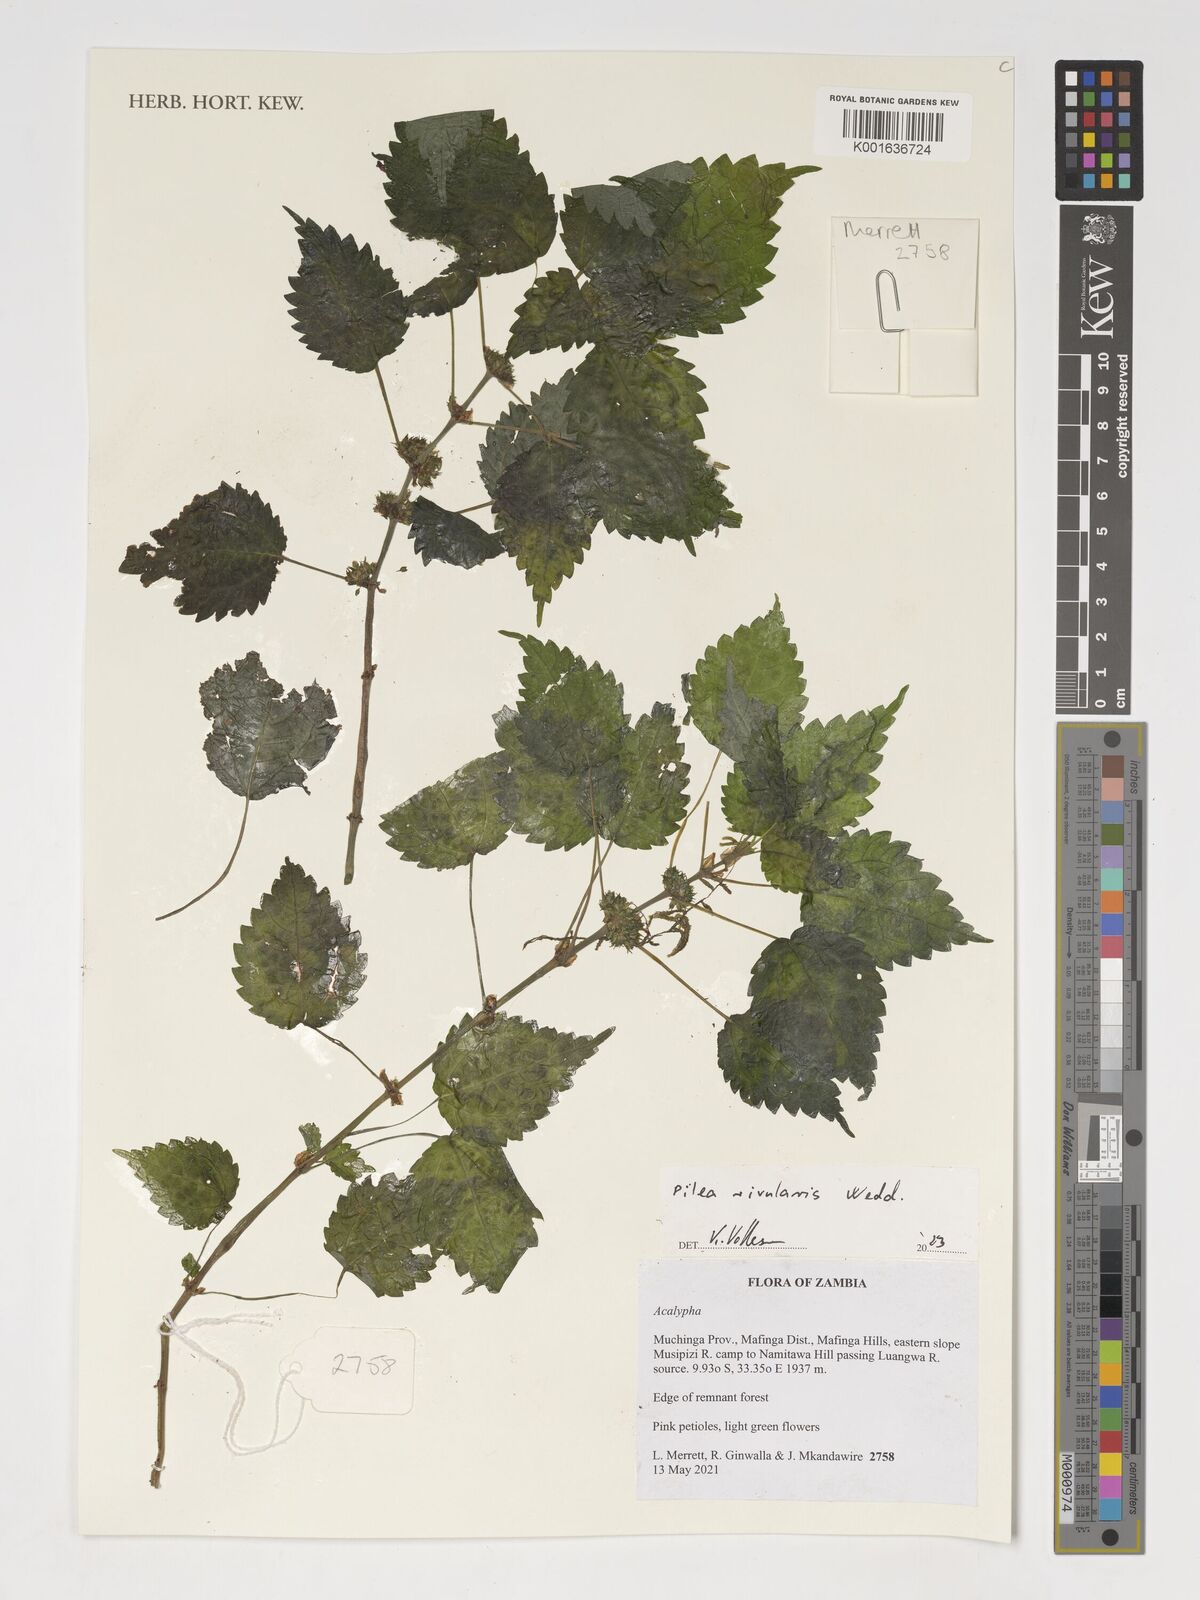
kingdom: Plantae
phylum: Tracheophyta
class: Magnoliopsida
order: Rosales
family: Urticaceae
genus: Pilea
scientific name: Pilea rivularis
